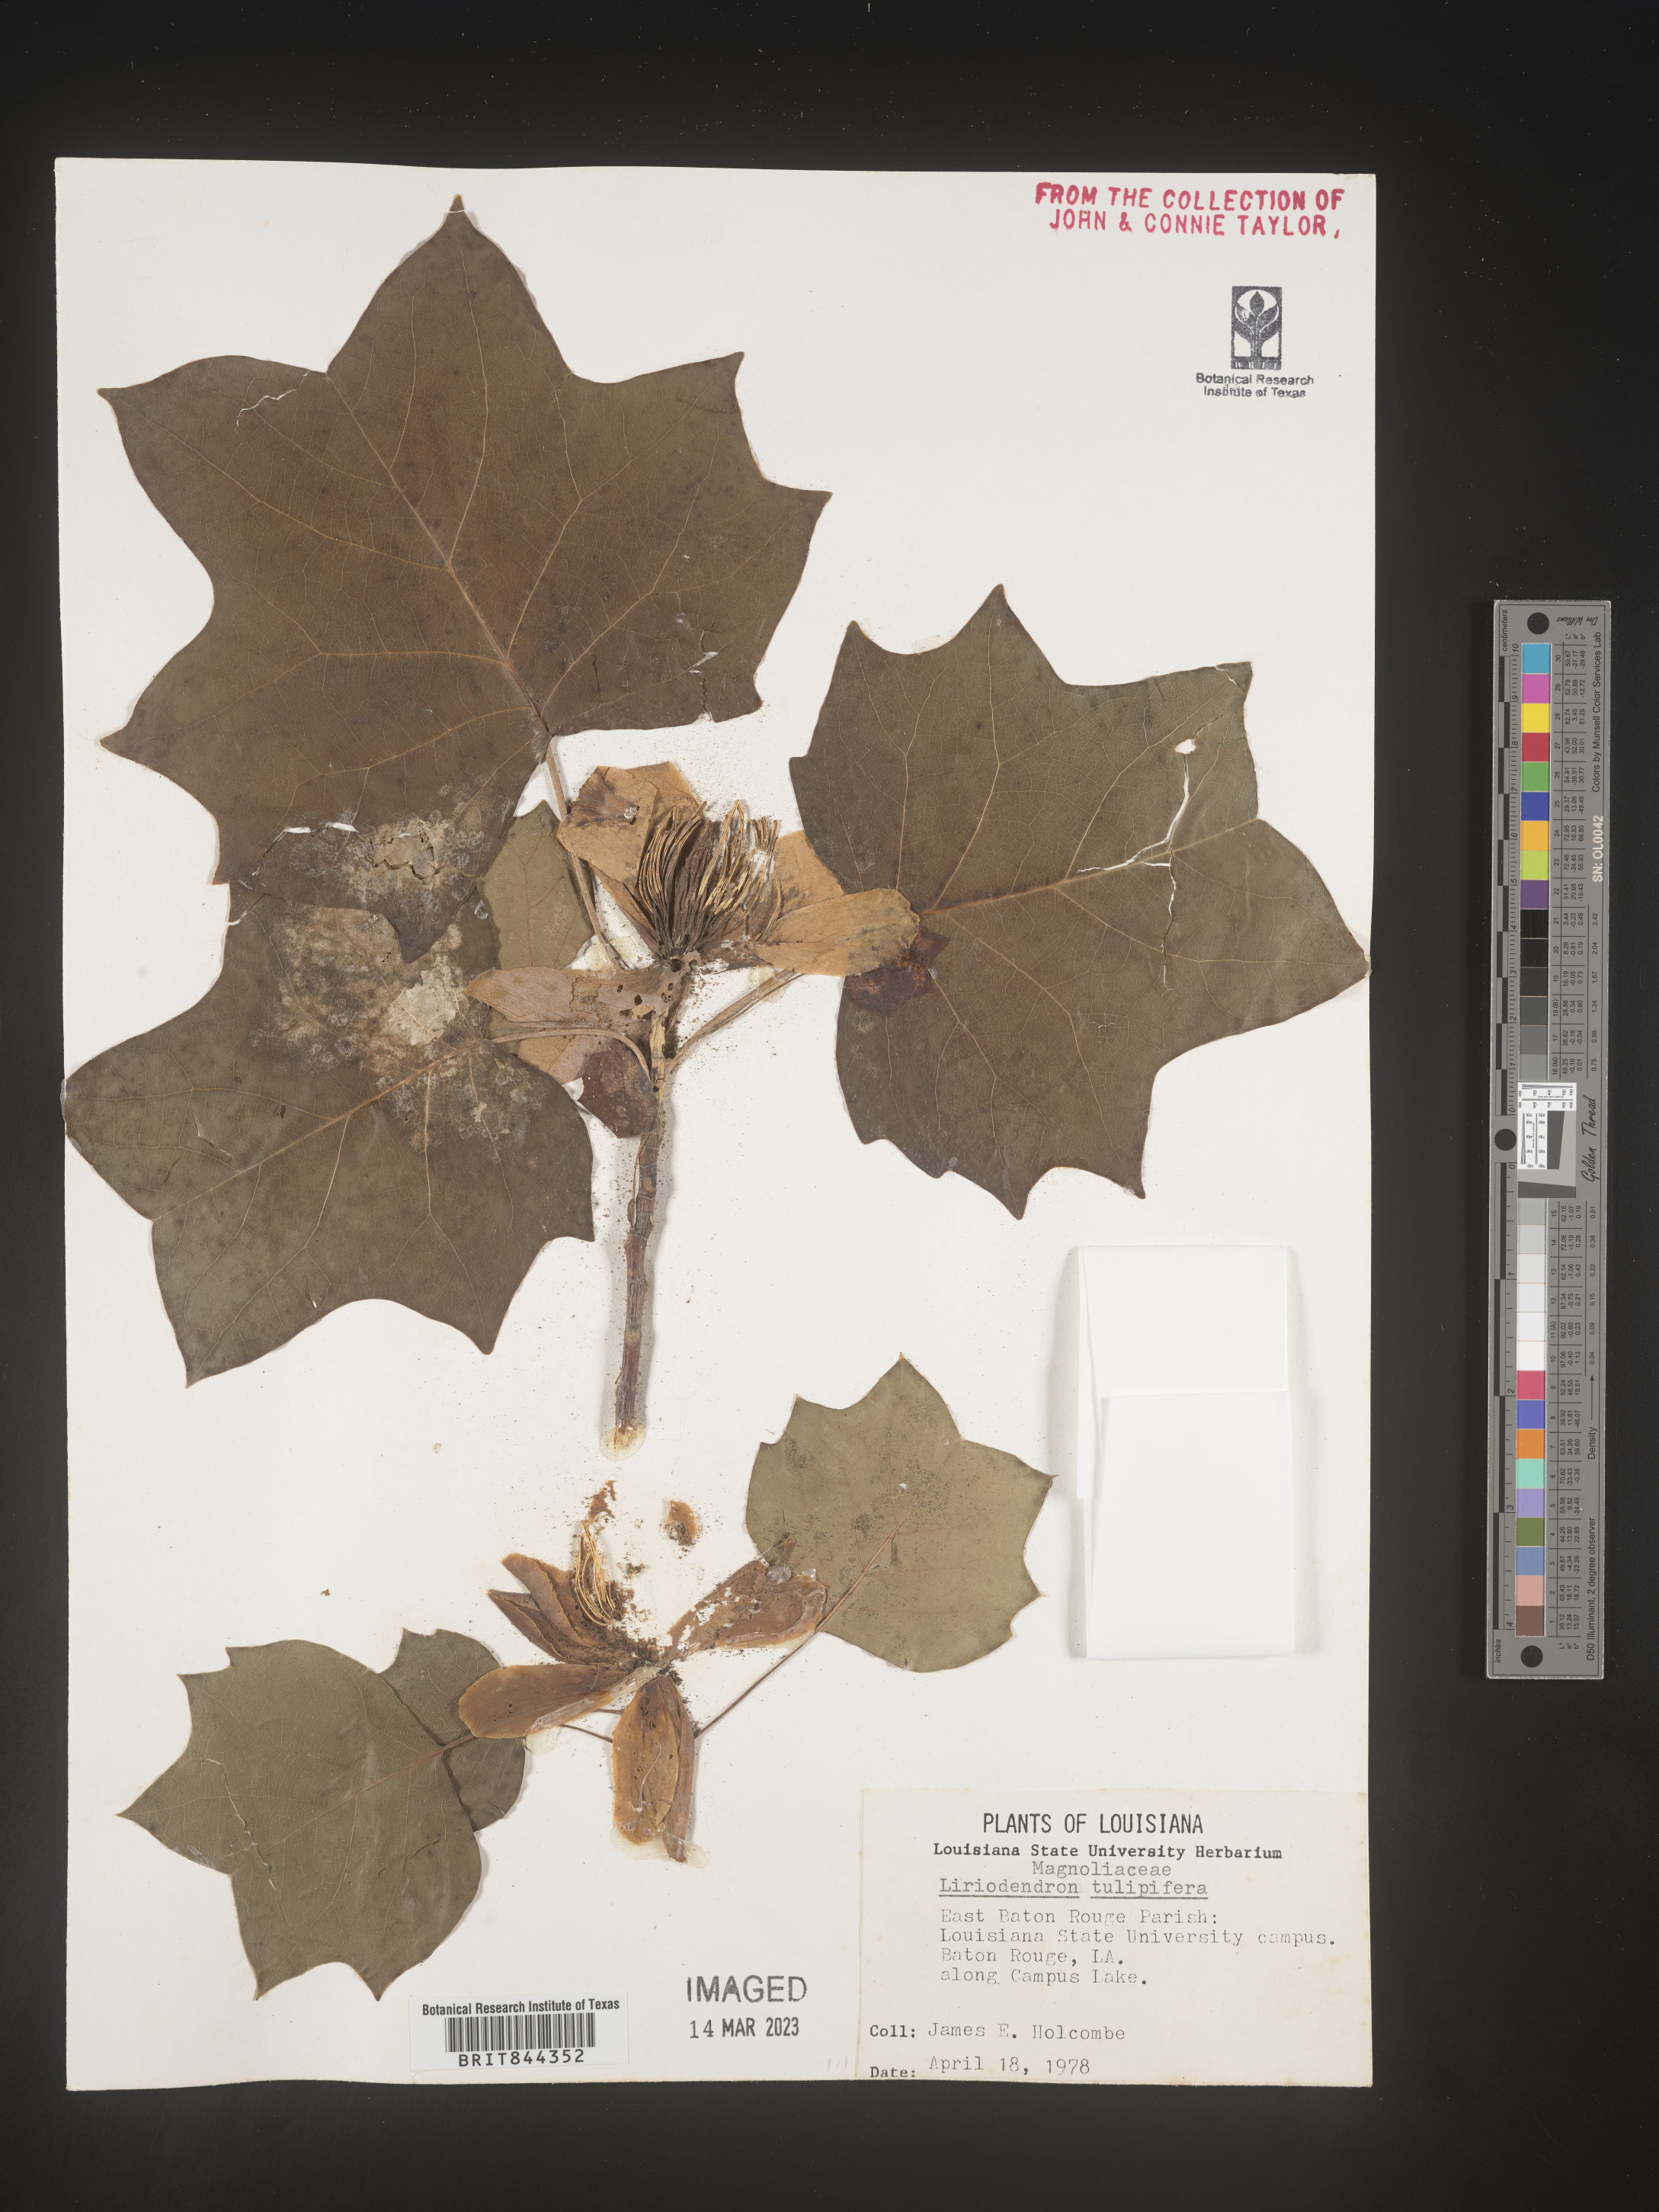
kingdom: Plantae
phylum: Tracheophyta
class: Magnoliopsida
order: Magnoliales
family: Magnoliaceae
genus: Liriodendron
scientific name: Liriodendron tulipifera
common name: Tulip tree
